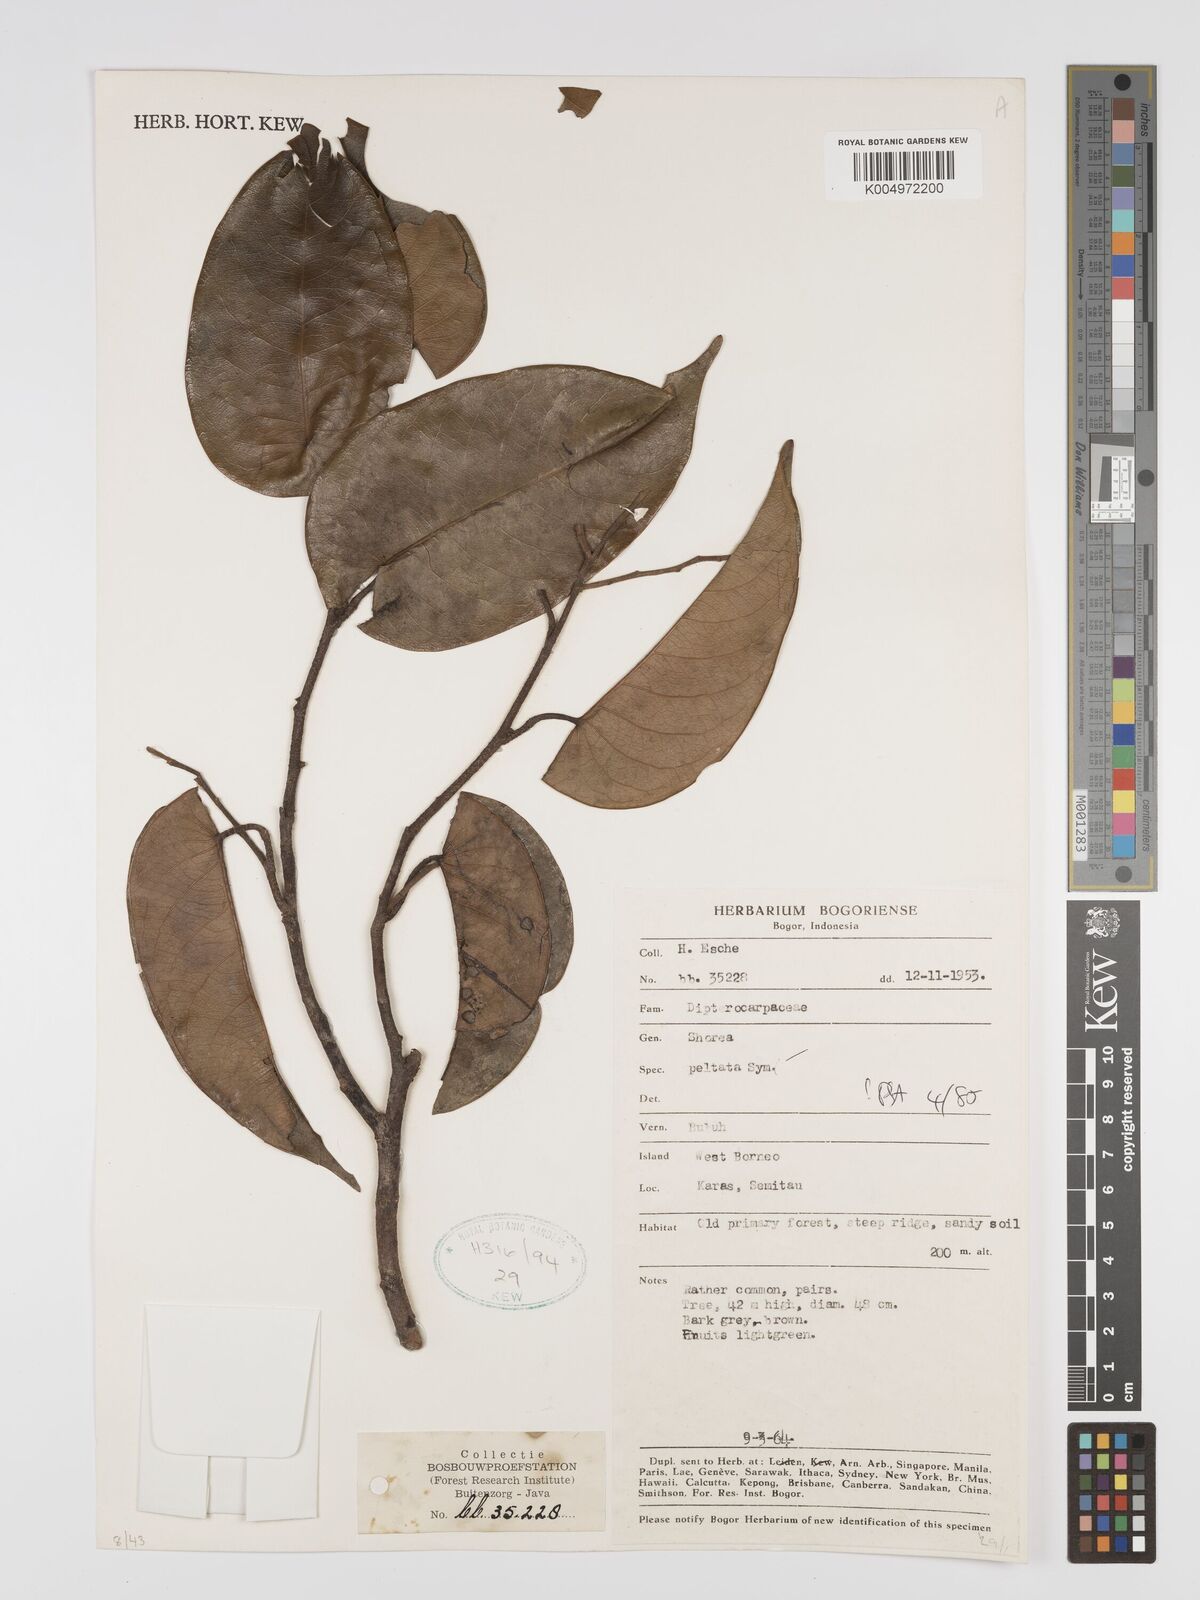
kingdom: Plantae
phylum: Tracheophyta
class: Magnoliopsida
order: Malvales
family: Dipterocarpaceae
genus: Shorea
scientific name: Shorea peltata
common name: Yellow meranti
